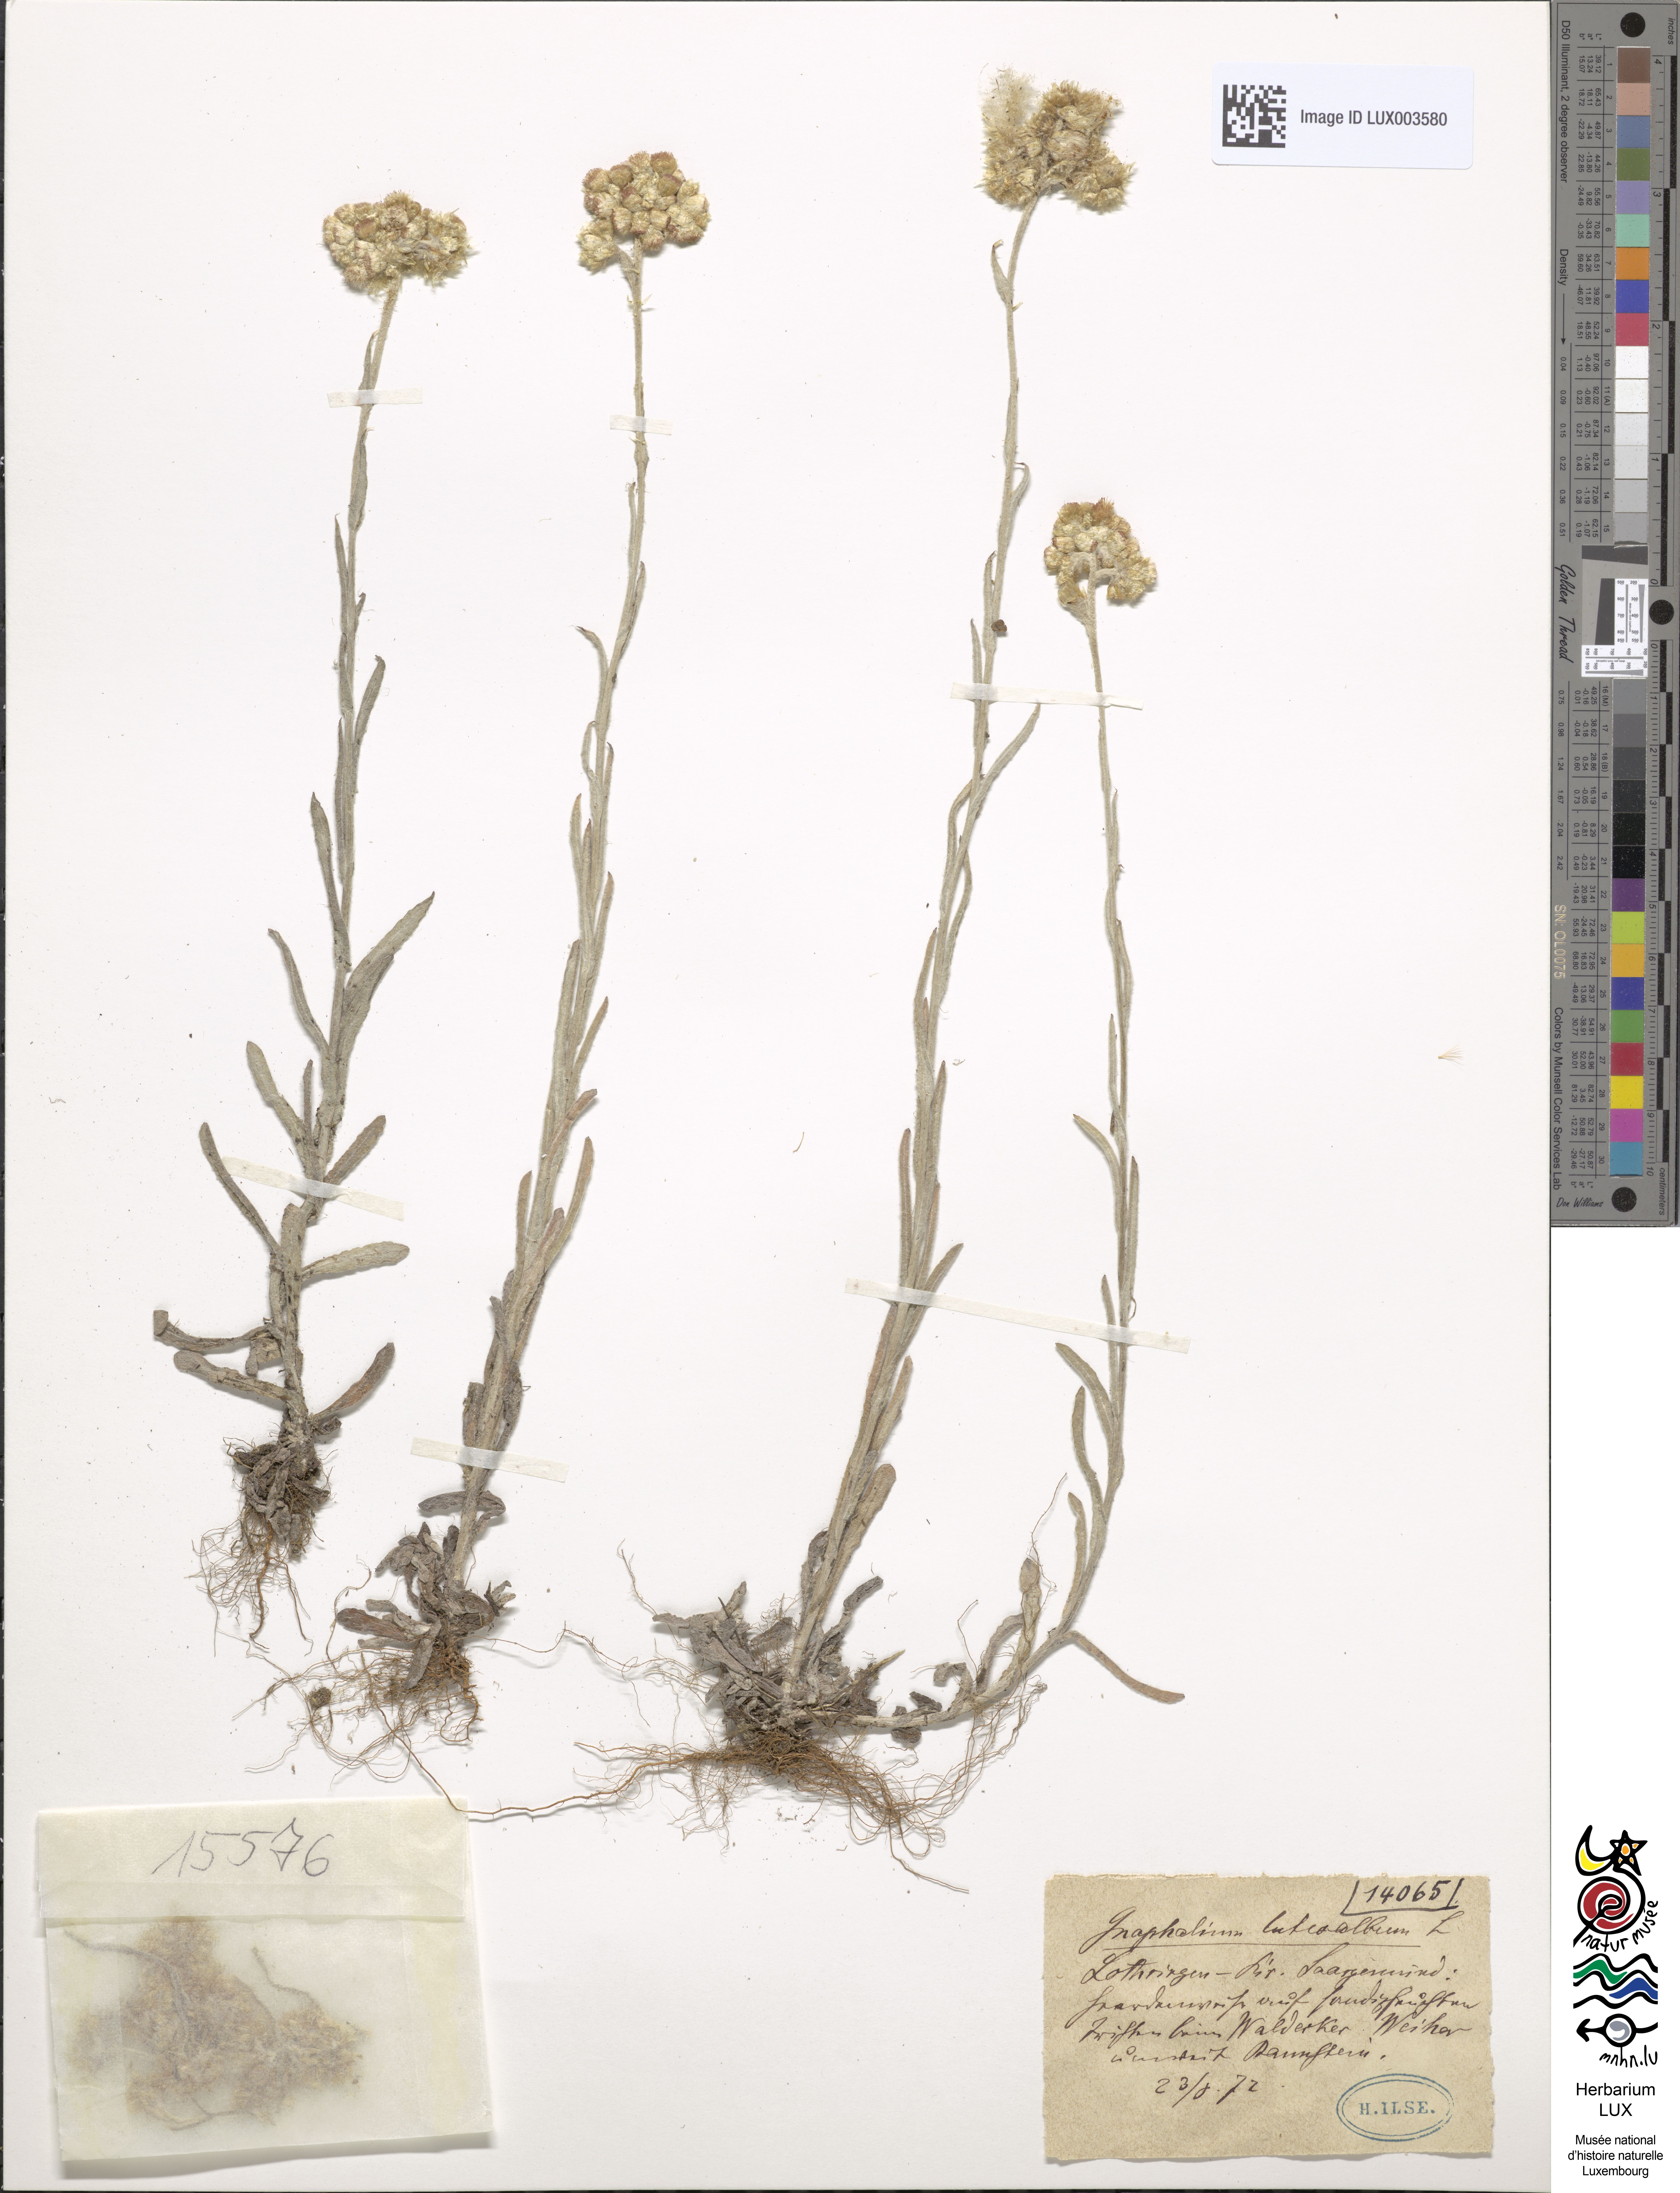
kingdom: Plantae
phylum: Tracheophyta
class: Magnoliopsida
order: Asterales
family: Asteraceae
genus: Helichrysum
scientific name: Helichrysum luteoalbum
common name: Daisy
